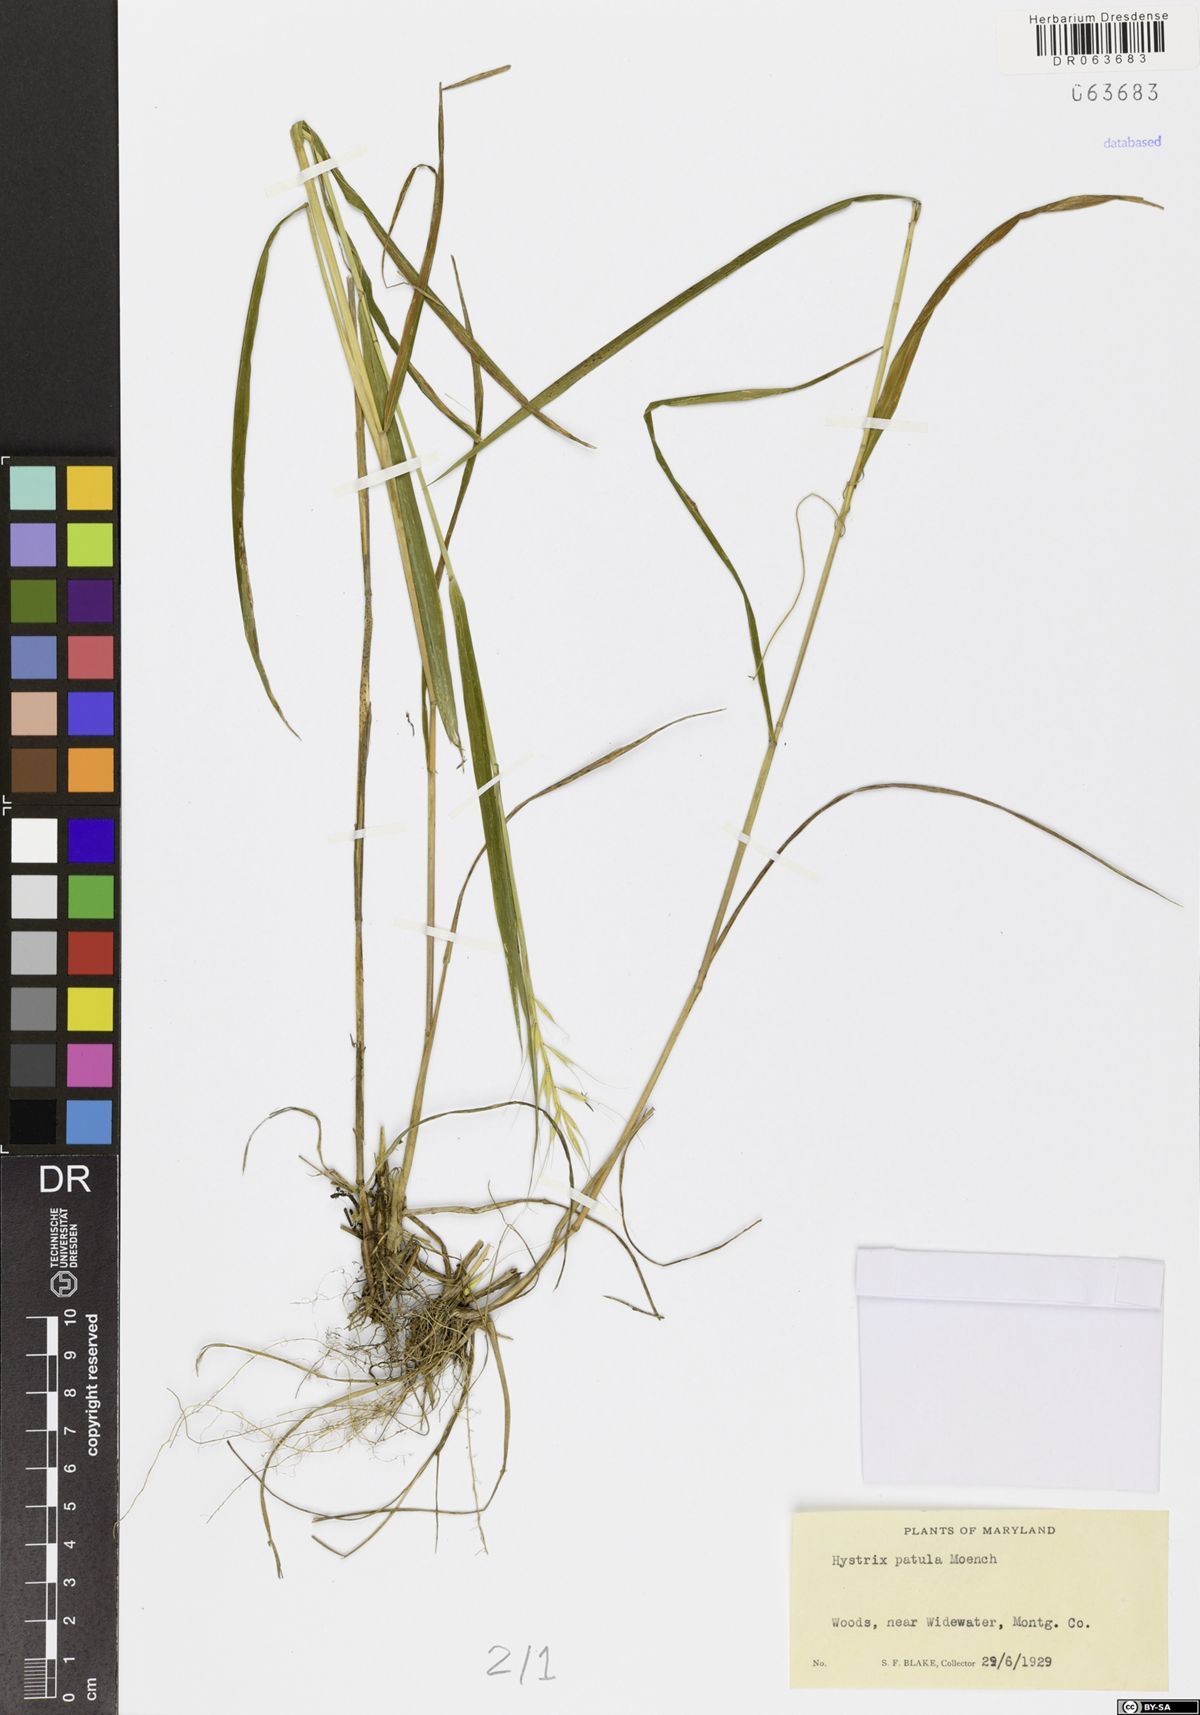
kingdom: Plantae
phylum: Tracheophyta
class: Liliopsida
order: Poales
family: Poaceae
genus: Elymus
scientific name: Elymus hystrix
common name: Bottlebrush grass
